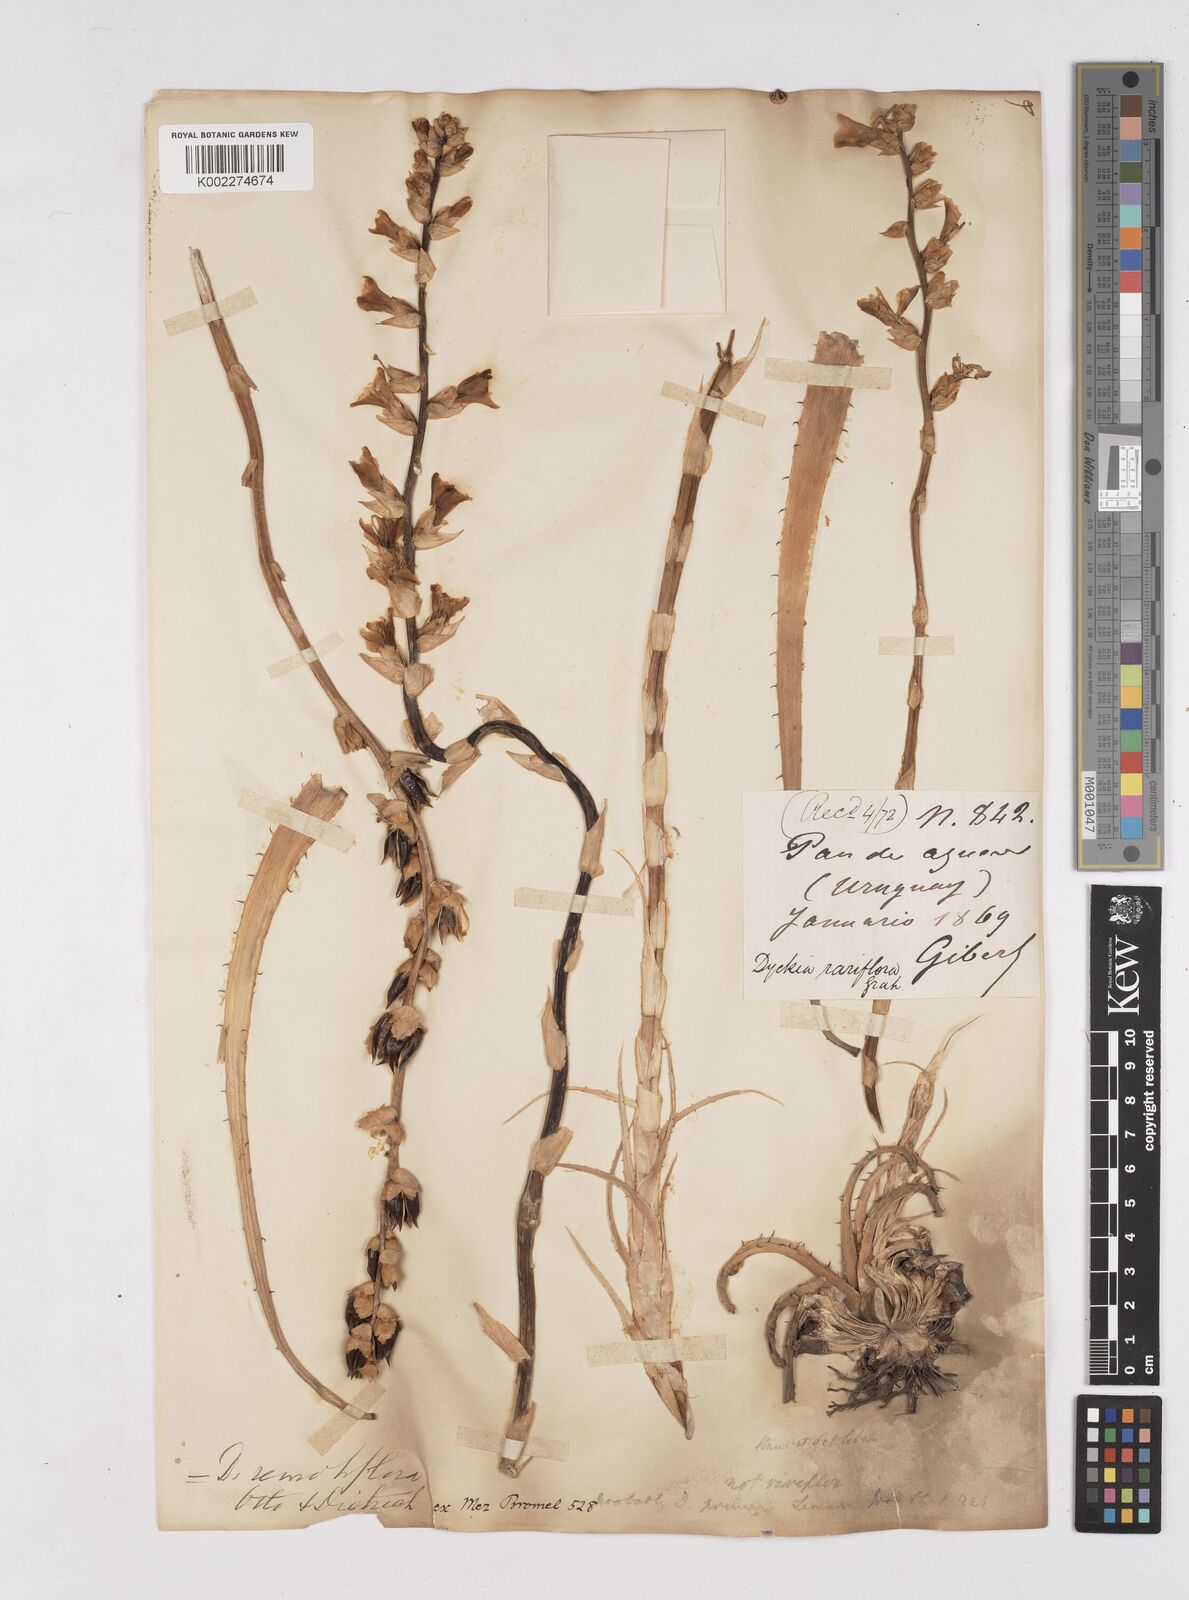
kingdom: Plantae
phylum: Tracheophyta
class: Liliopsida
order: Poales
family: Bromeliaceae
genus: Dyckia
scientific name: Dyckia remotiflora
